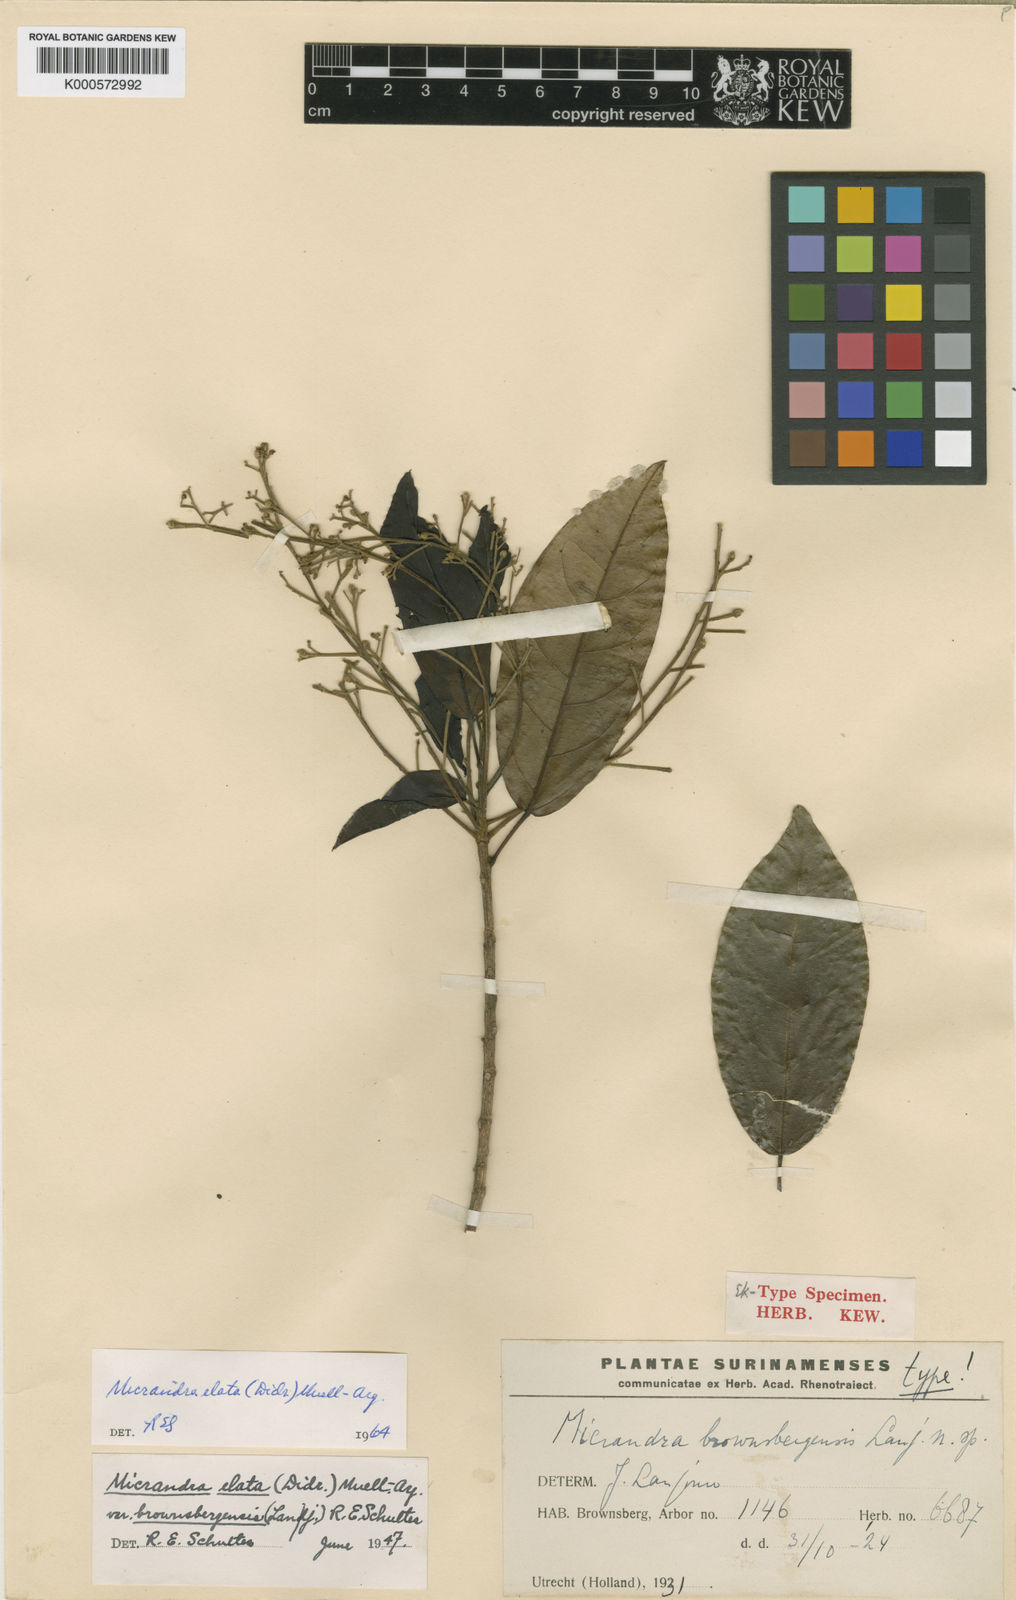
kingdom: Plantae
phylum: Tracheophyta
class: Magnoliopsida
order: Malpighiales
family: Euphorbiaceae
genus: Micrandra
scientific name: Micrandra
